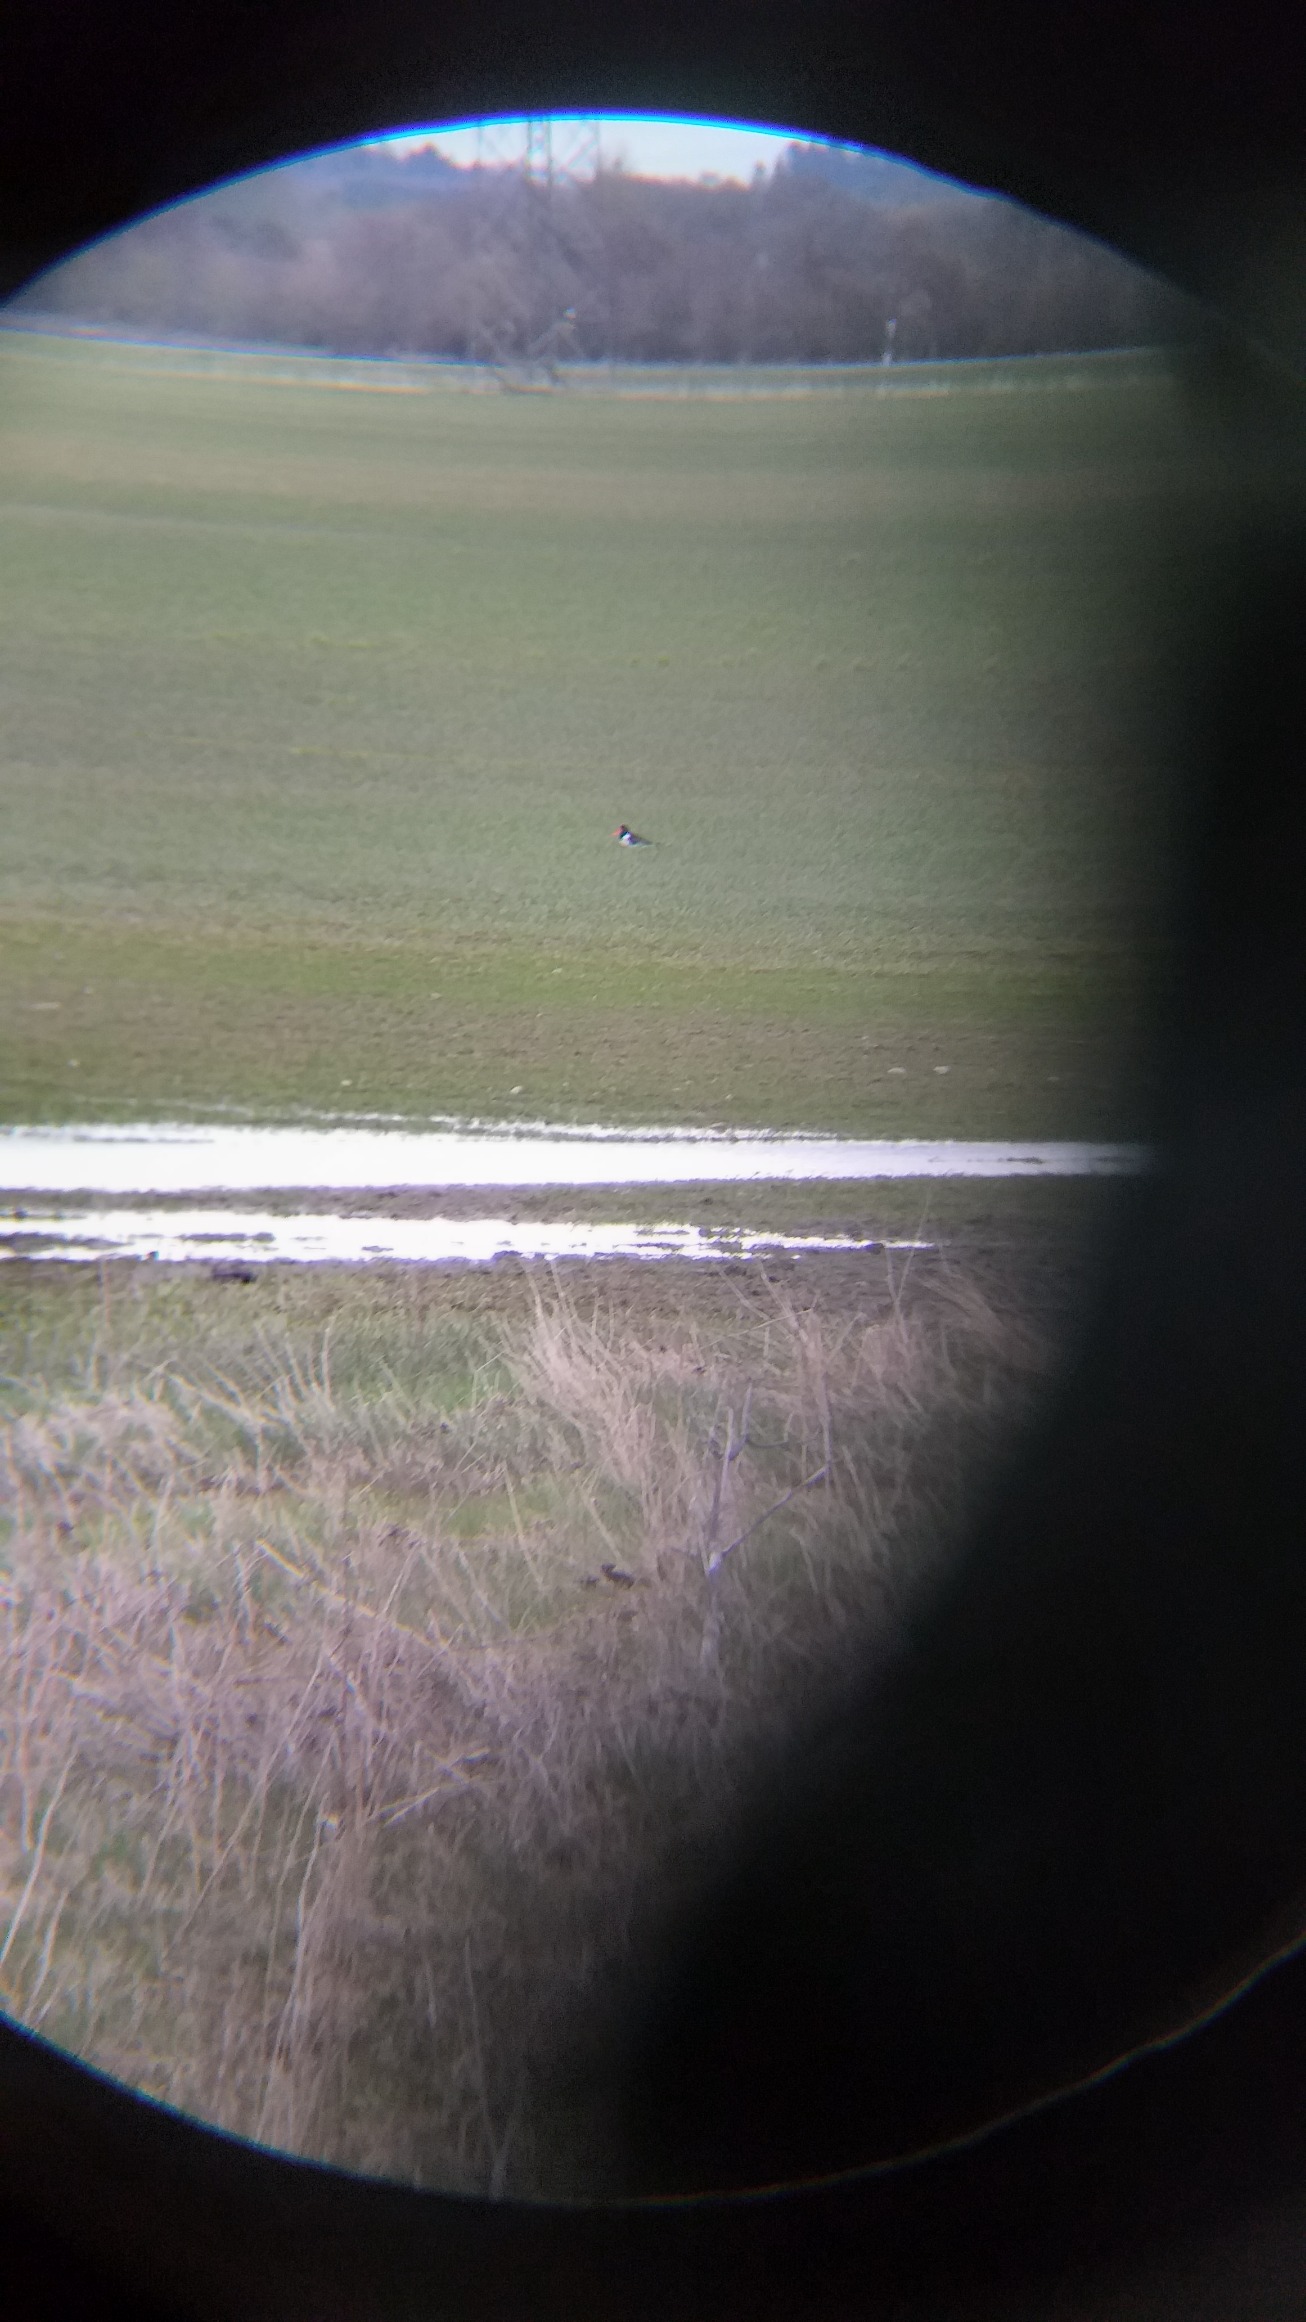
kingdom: Animalia
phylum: Chordata
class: Aves
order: Charadriiformes
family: Haematopodidae
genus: Haematopus
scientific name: Haematopus ostralegus
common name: Strandskade
